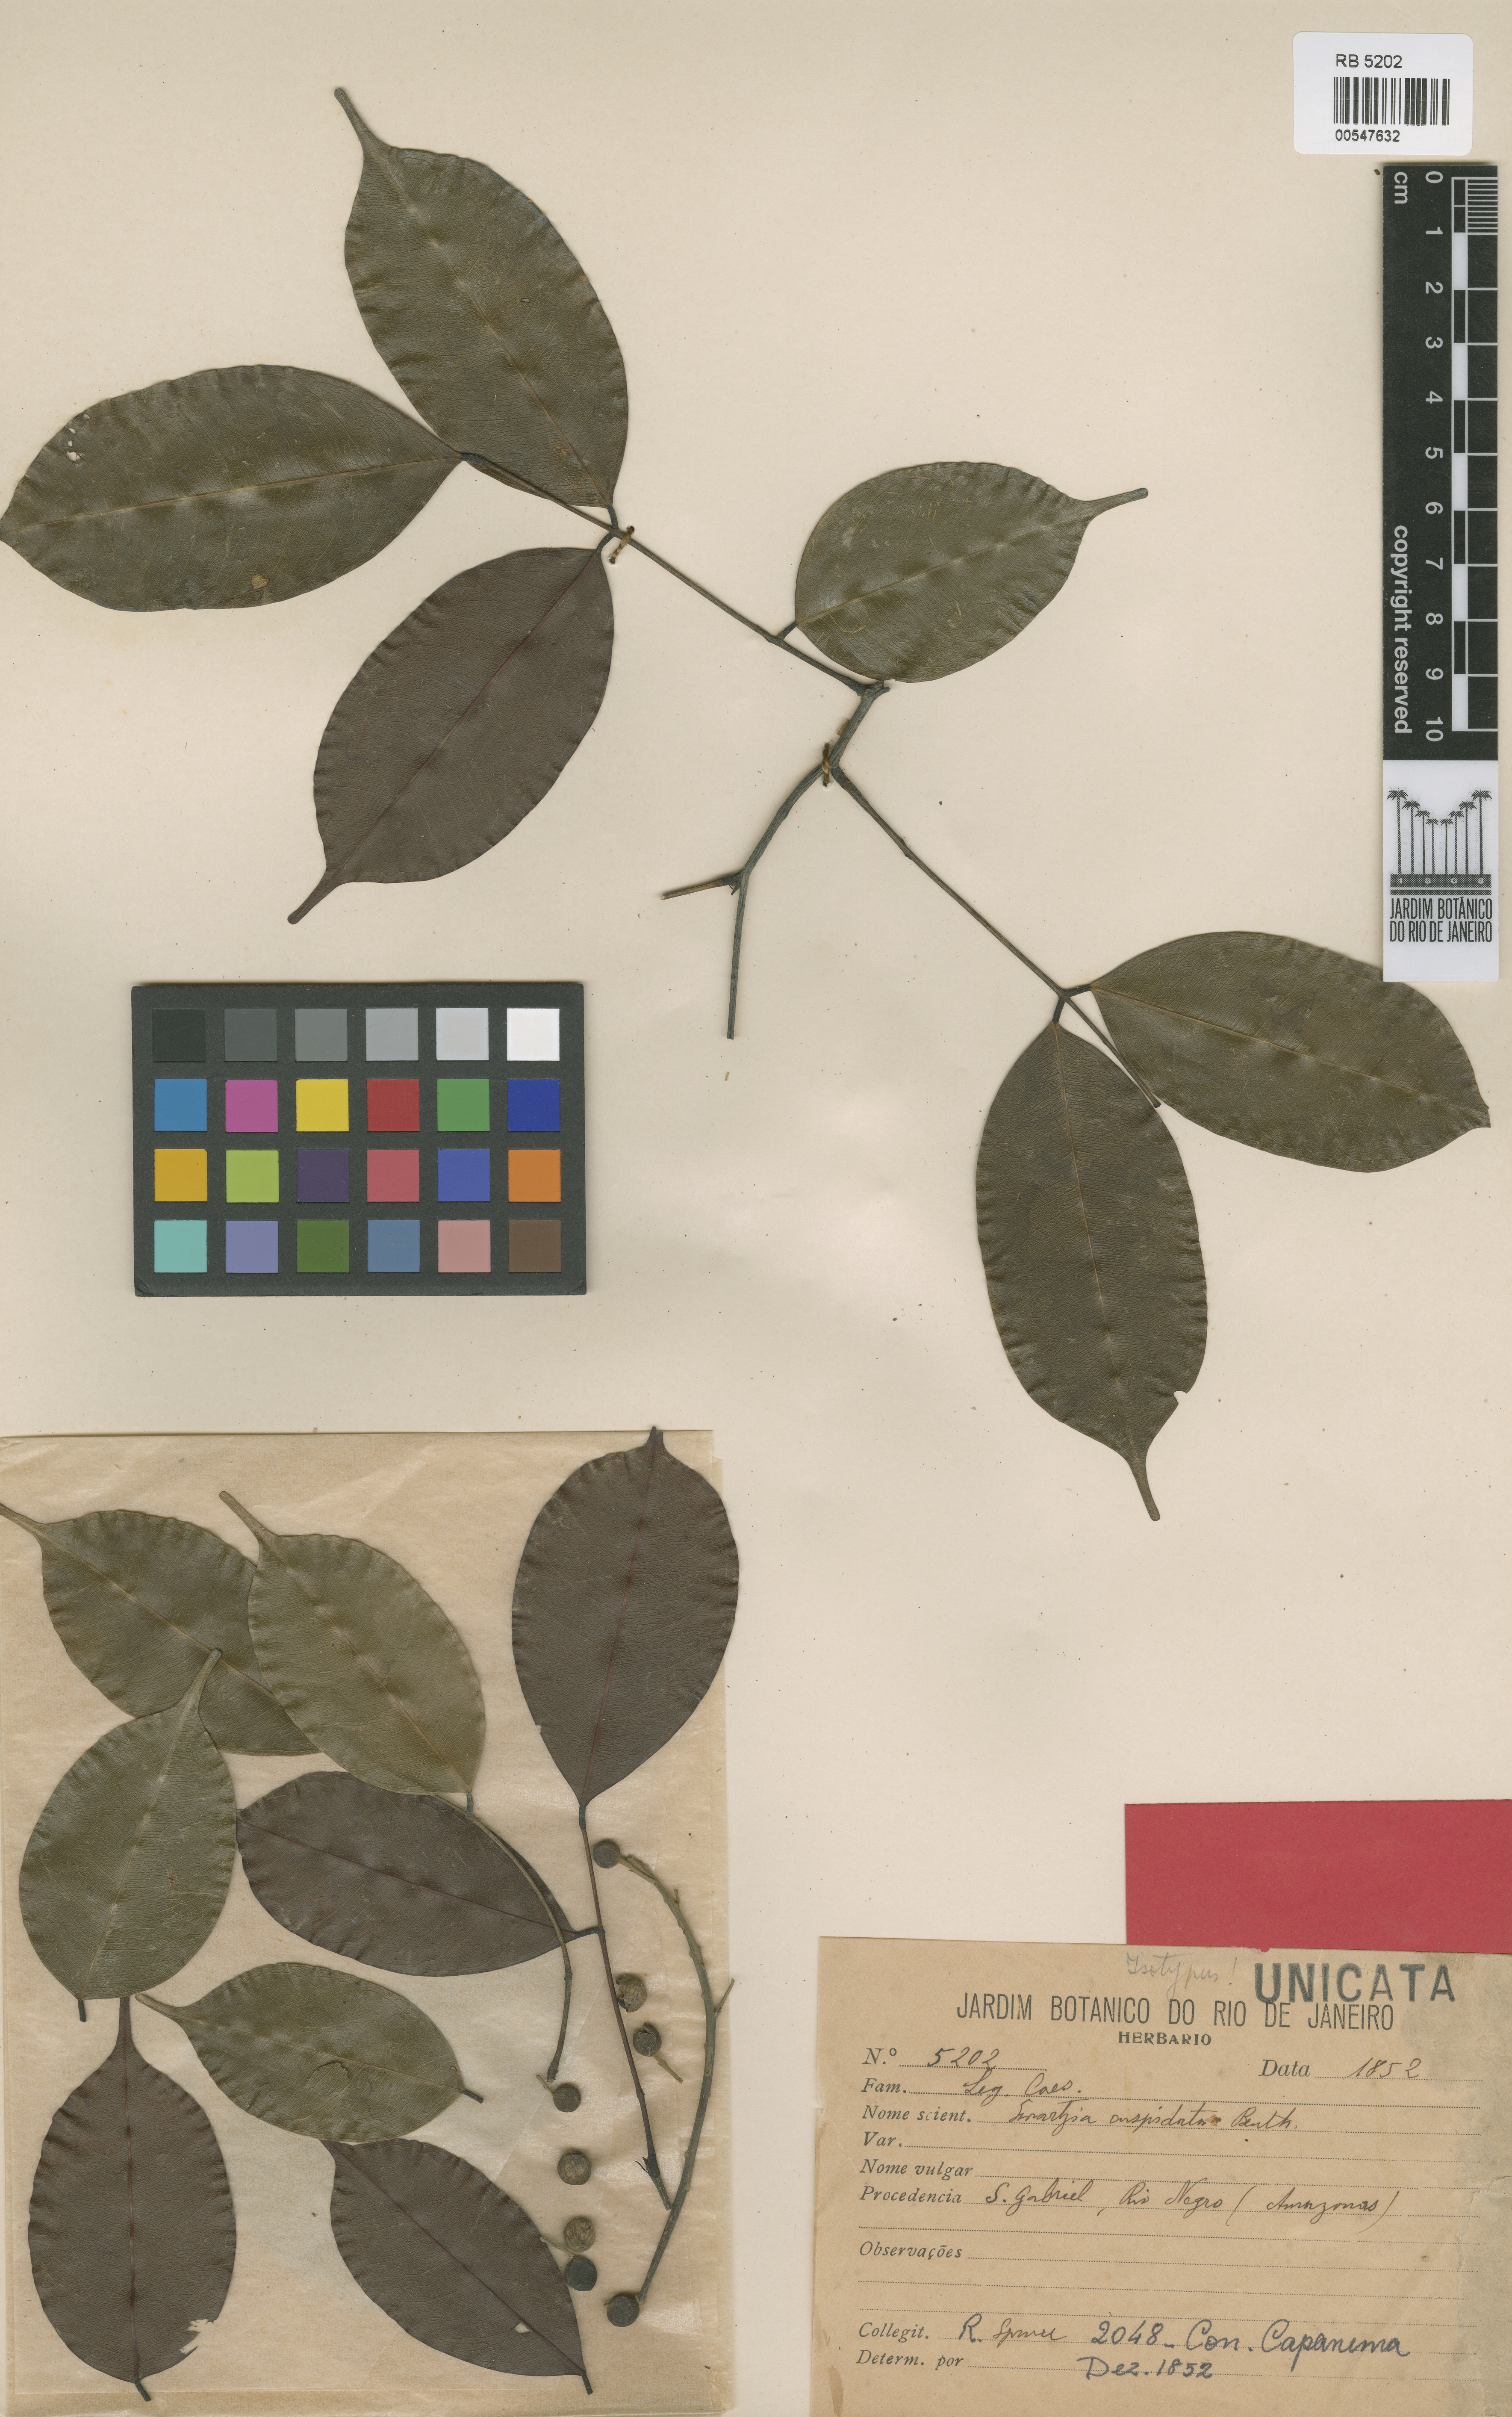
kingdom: Plantae
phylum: Tracheophyta
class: Magnoliopsida
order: Fabales
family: Fabaceae
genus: Swartzia
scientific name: Swartzia cuspidata
